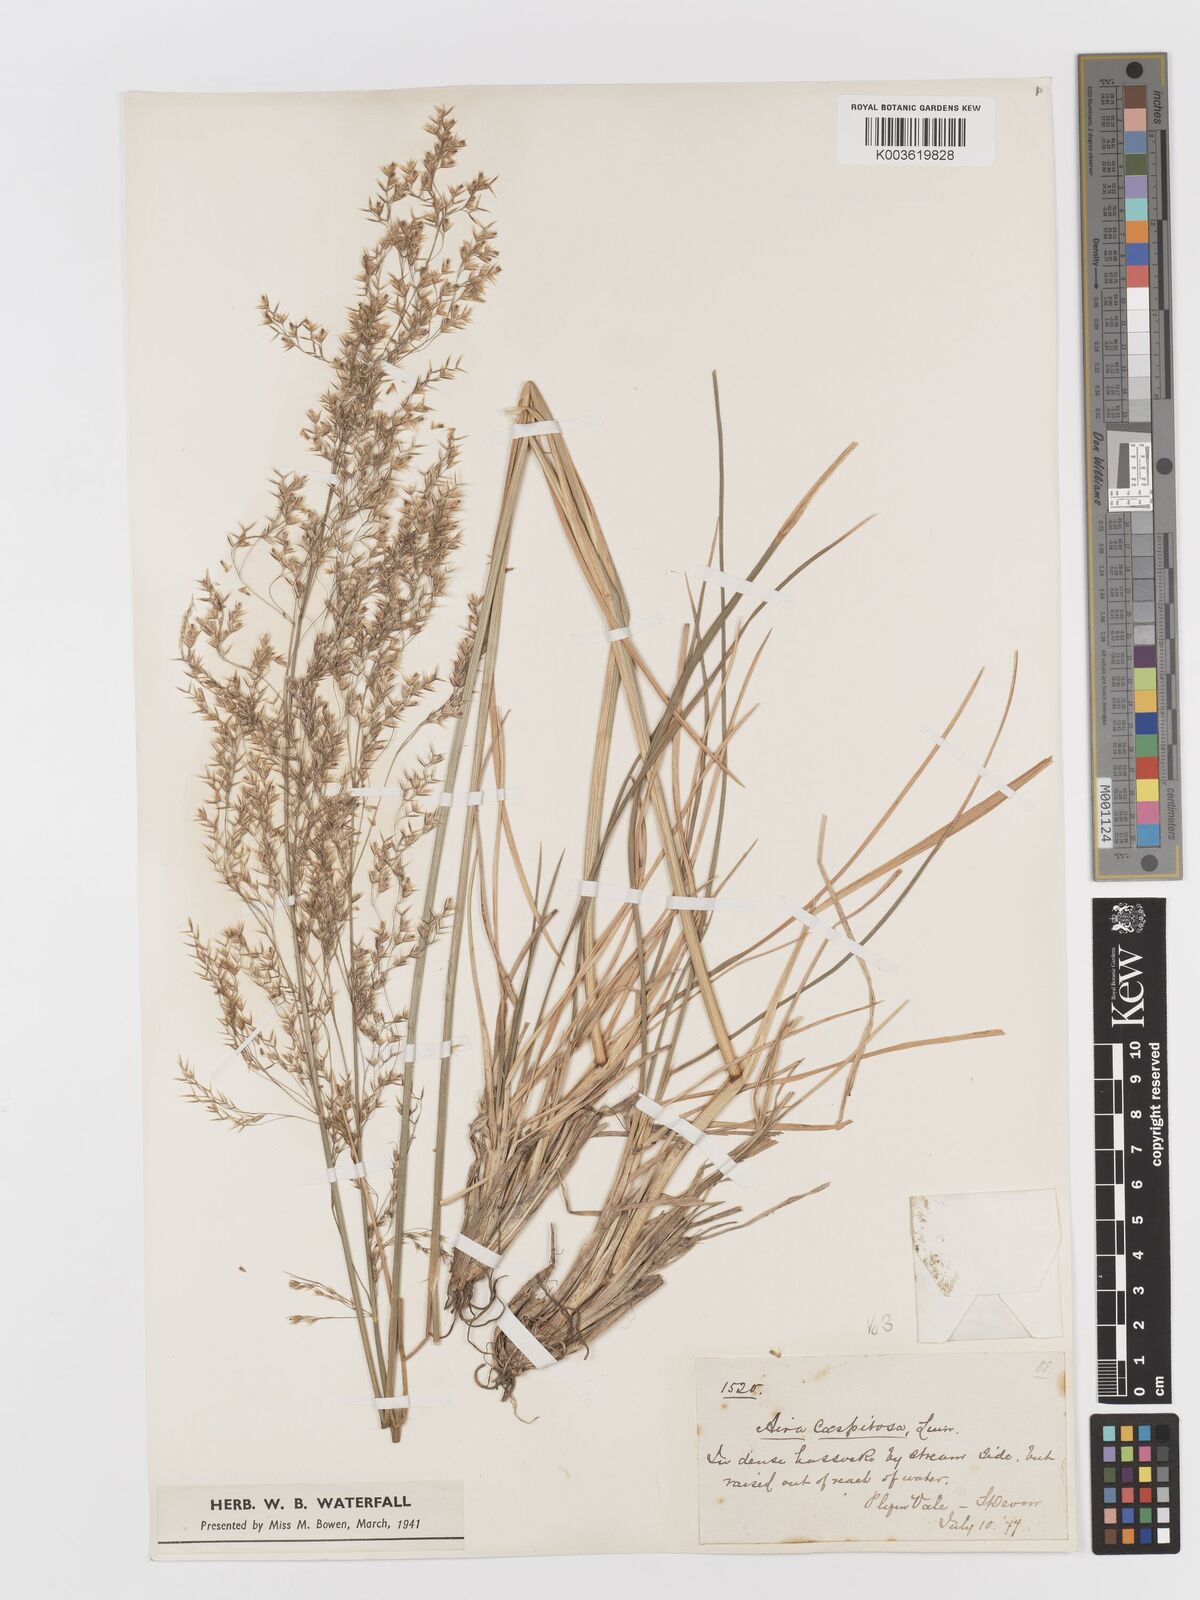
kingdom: Plantae
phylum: Tracheophyta
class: Liliopsida
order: Poales
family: Poaceae
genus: Deschampsia
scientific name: Deschampsia cespitosa
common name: Tufted hair-grass
